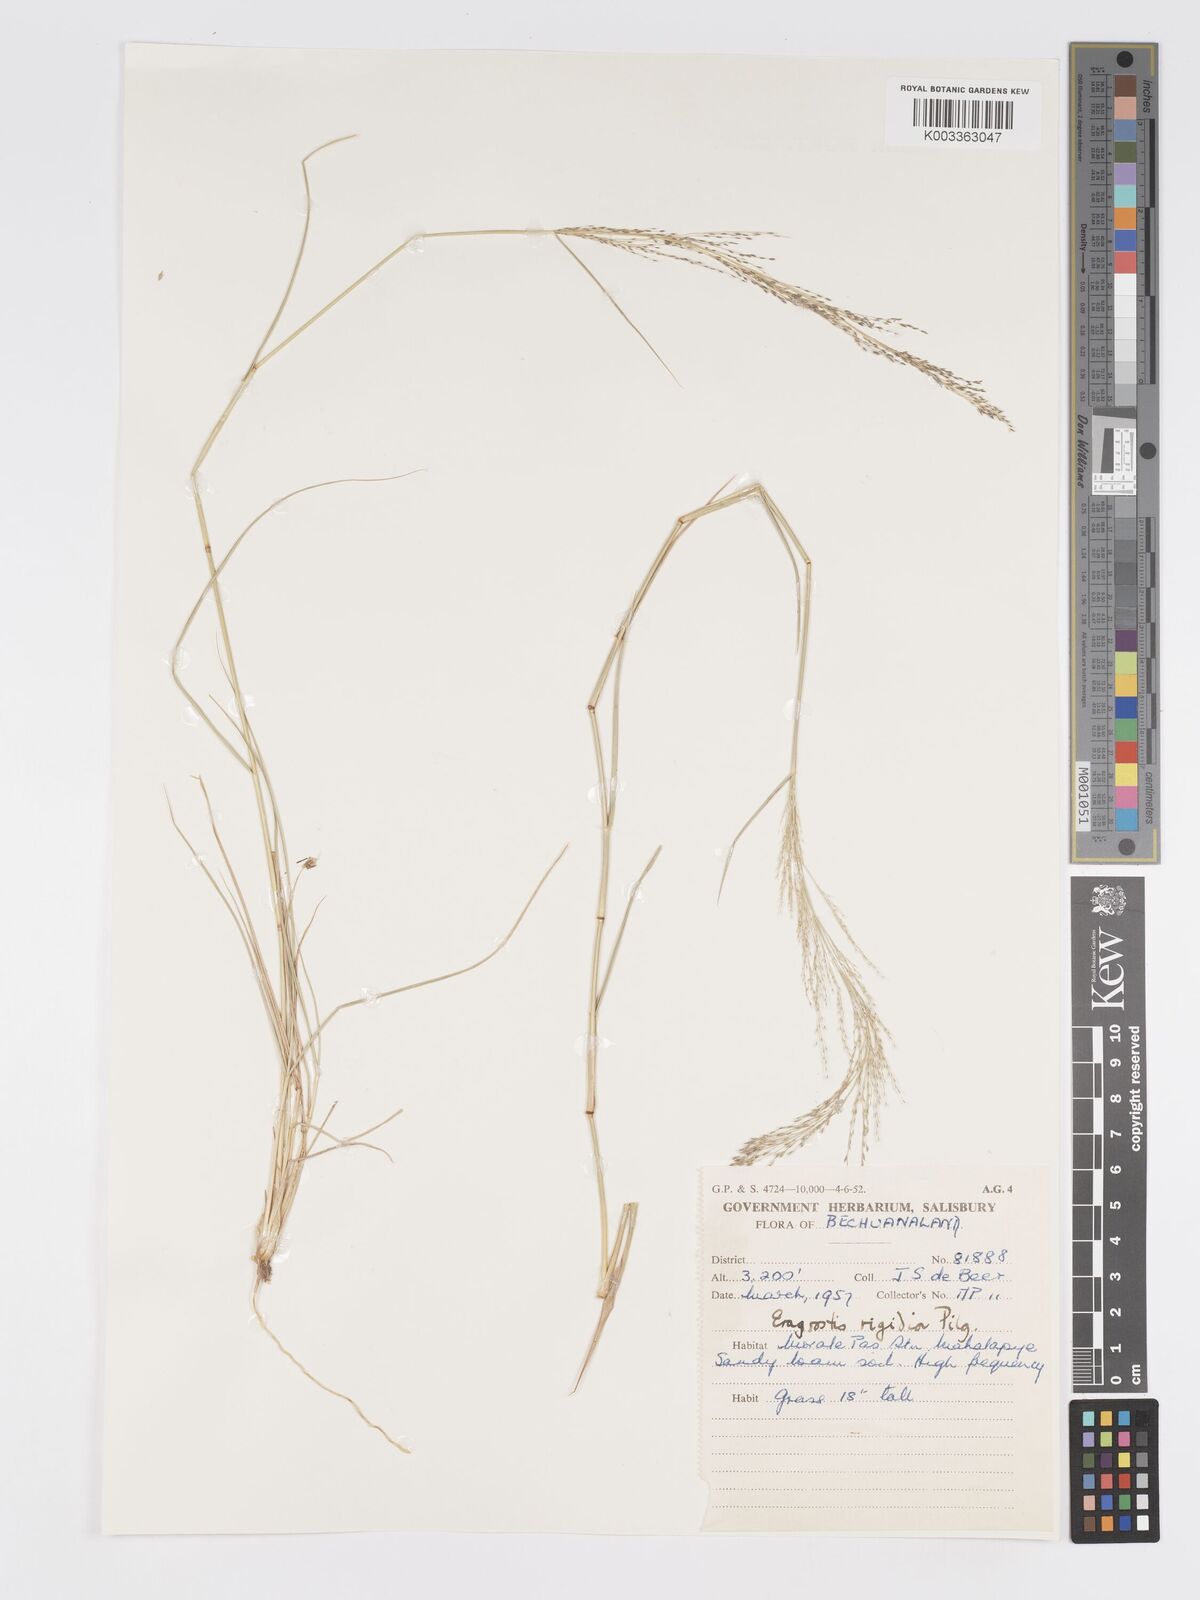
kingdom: Plantae
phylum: Tracheophyta
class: Liliopsida
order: Poales
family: Poaceae
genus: Eragrostis
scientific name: Eragrostis cylindriflora
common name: Cylinderflower lovegrass
